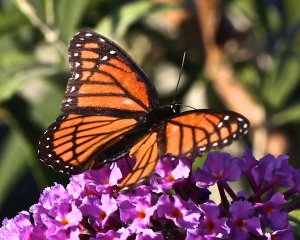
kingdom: Animalia
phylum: Arthropoda
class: Insecta
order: Lepidoptera
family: Nymphalidae
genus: Limenitis
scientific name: Limenitis archippus
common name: Viceroy
